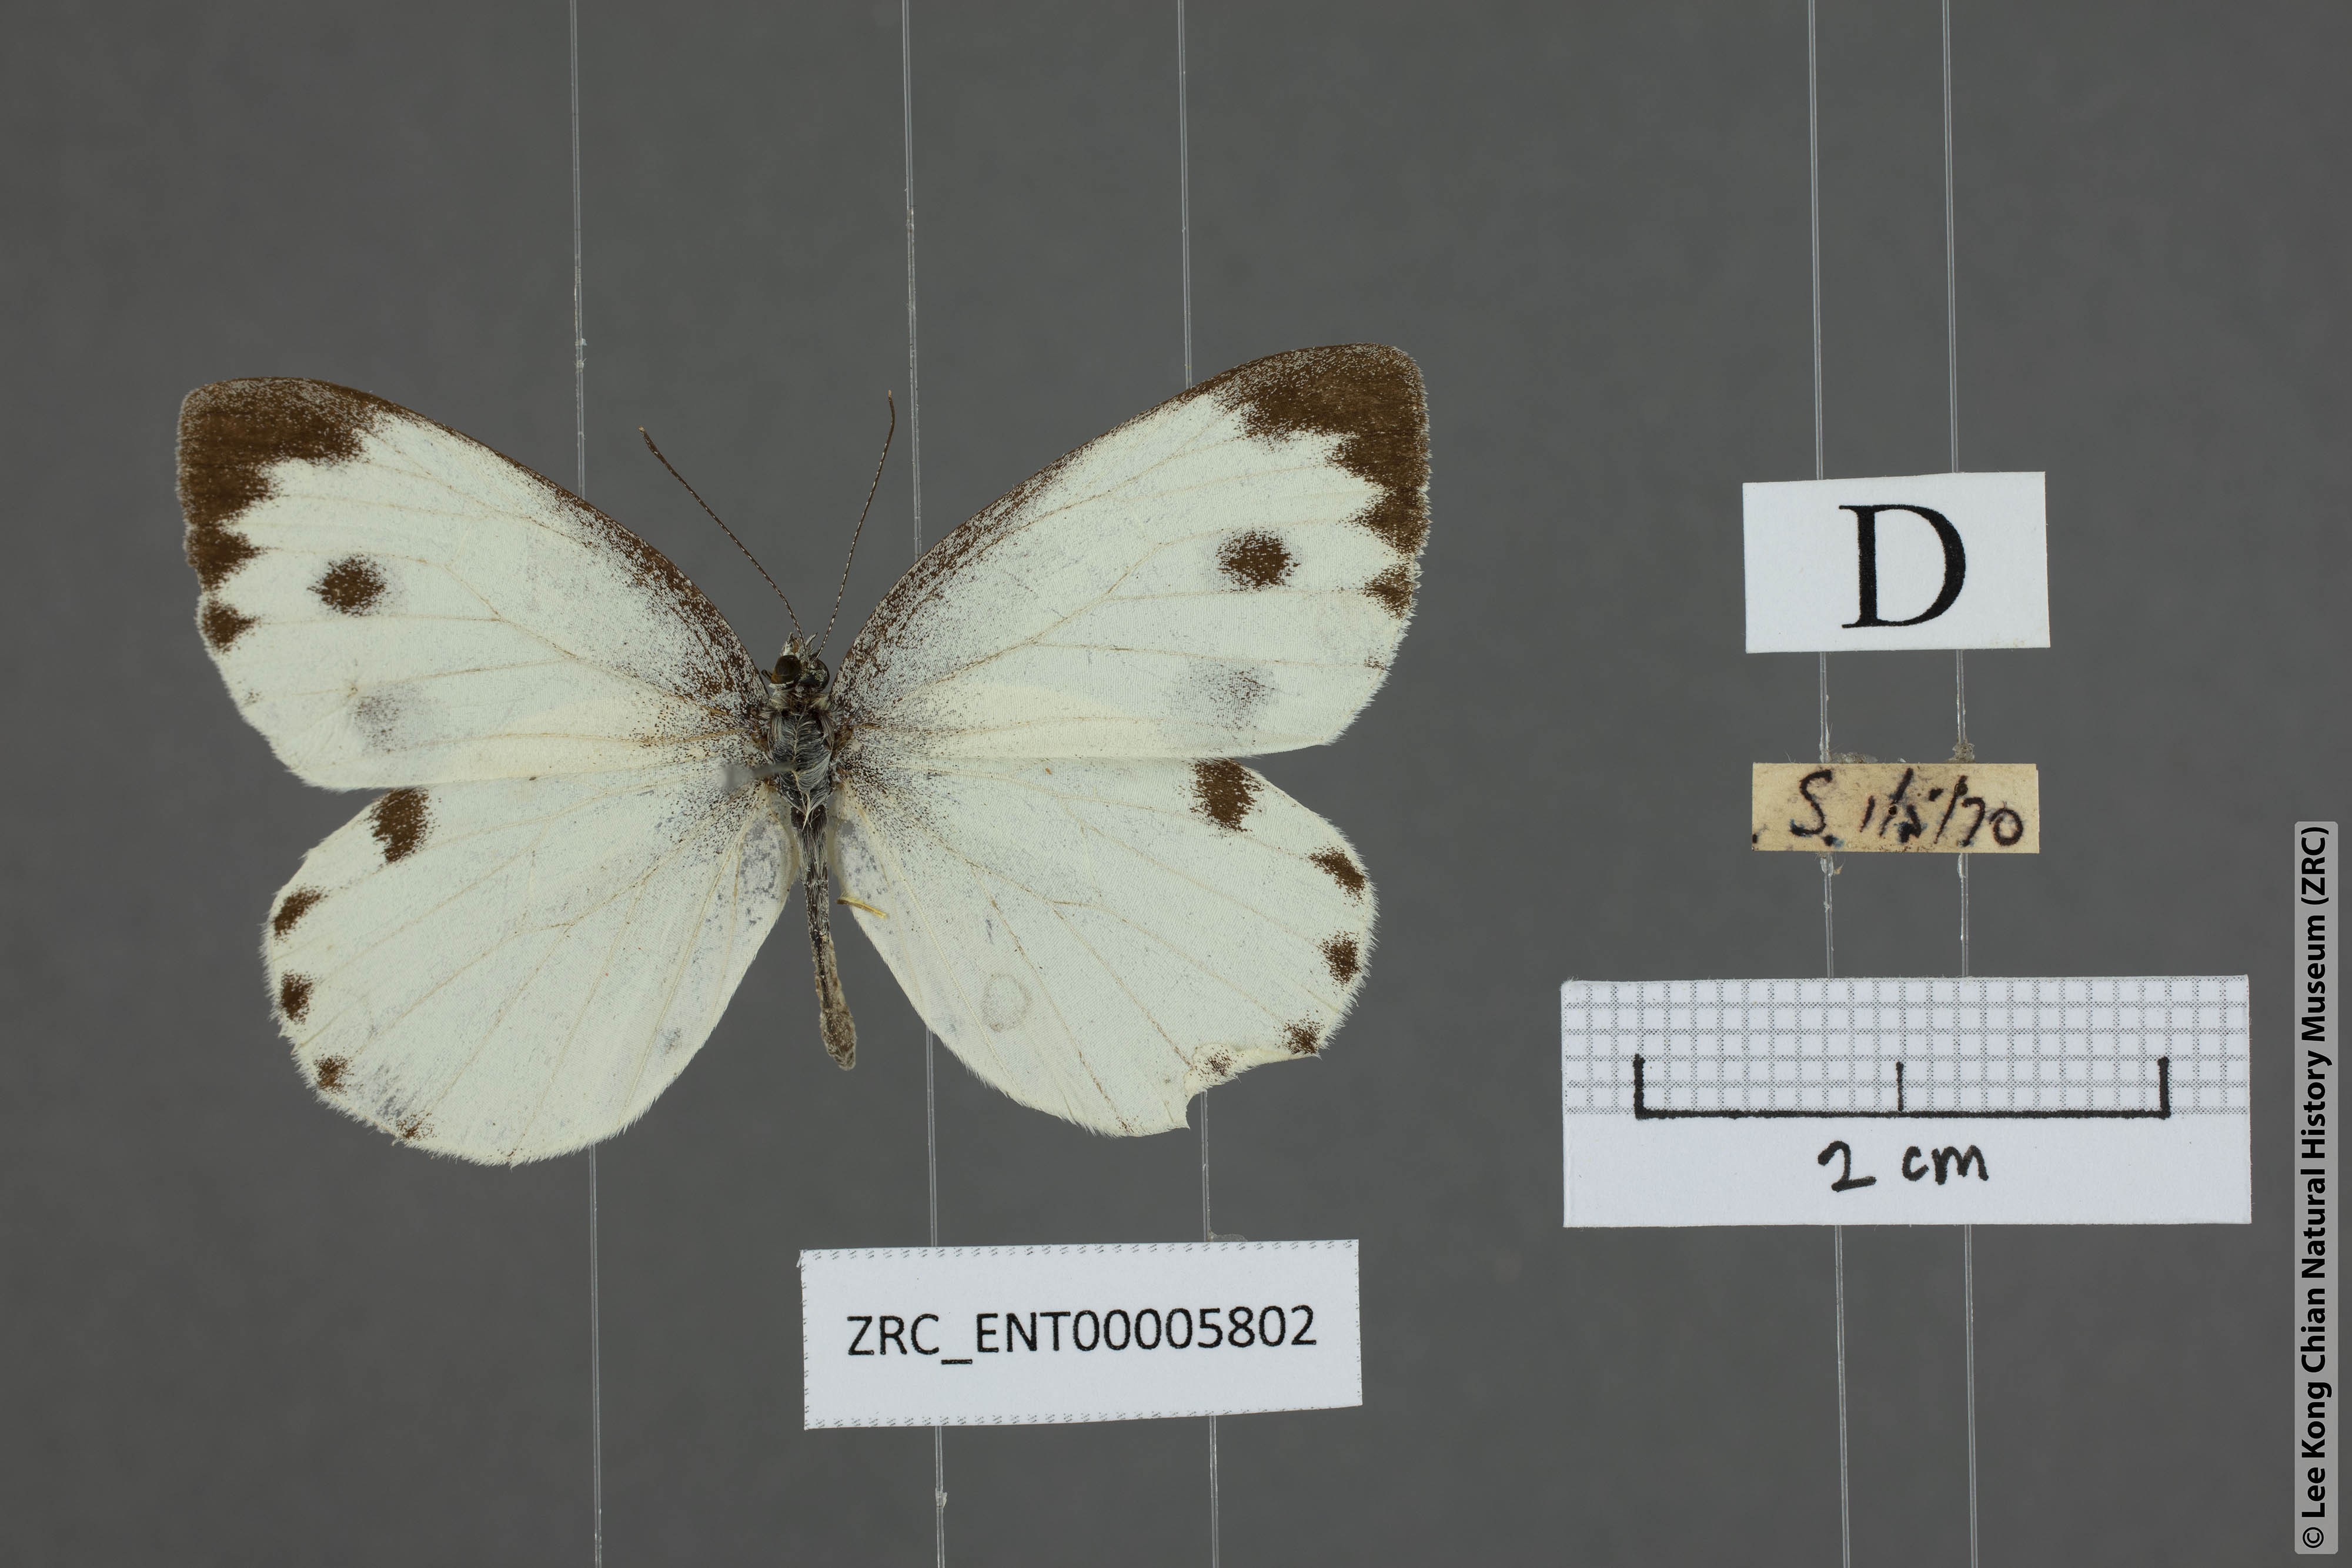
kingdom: Animalia
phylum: Arthropoda
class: Insecta
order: Lepidoptera
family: Pieridae
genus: Pieris
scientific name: Pieris canidia
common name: Indian cabbage white
